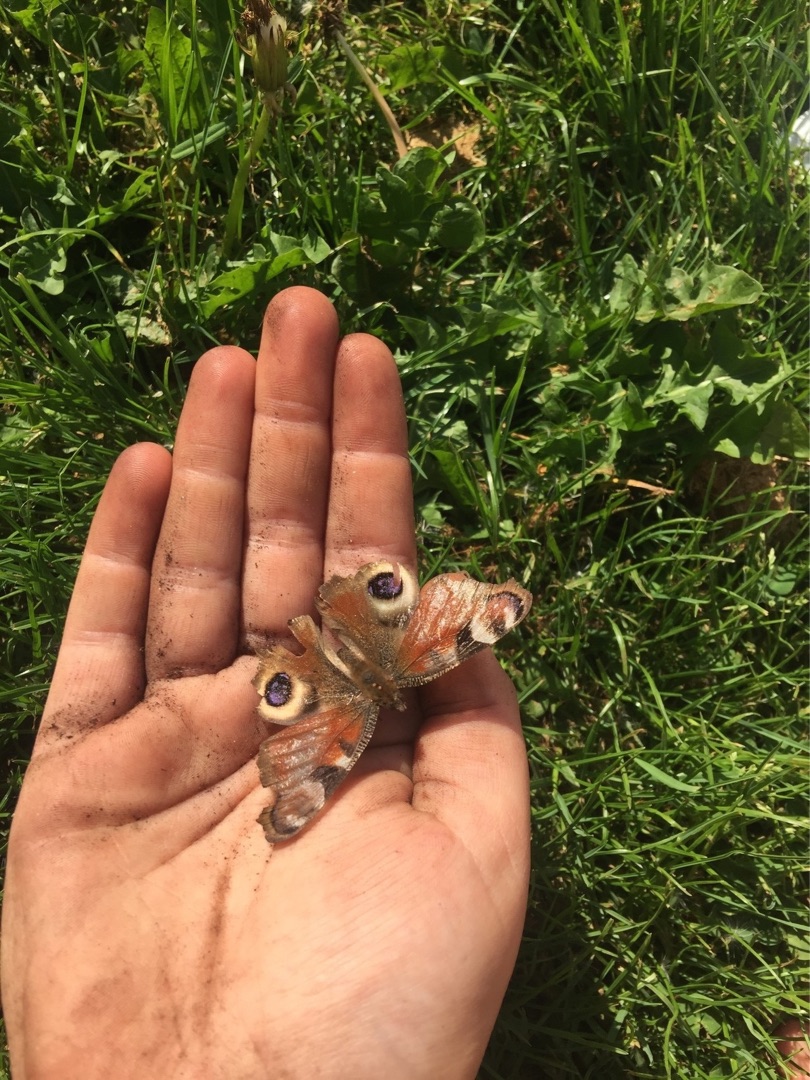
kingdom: Animalia
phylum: Arthropoda
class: Insecta
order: Lepidoptera
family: Nymphalidae
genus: Aglais
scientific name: Aglais io
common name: Dagpåfugleøje
